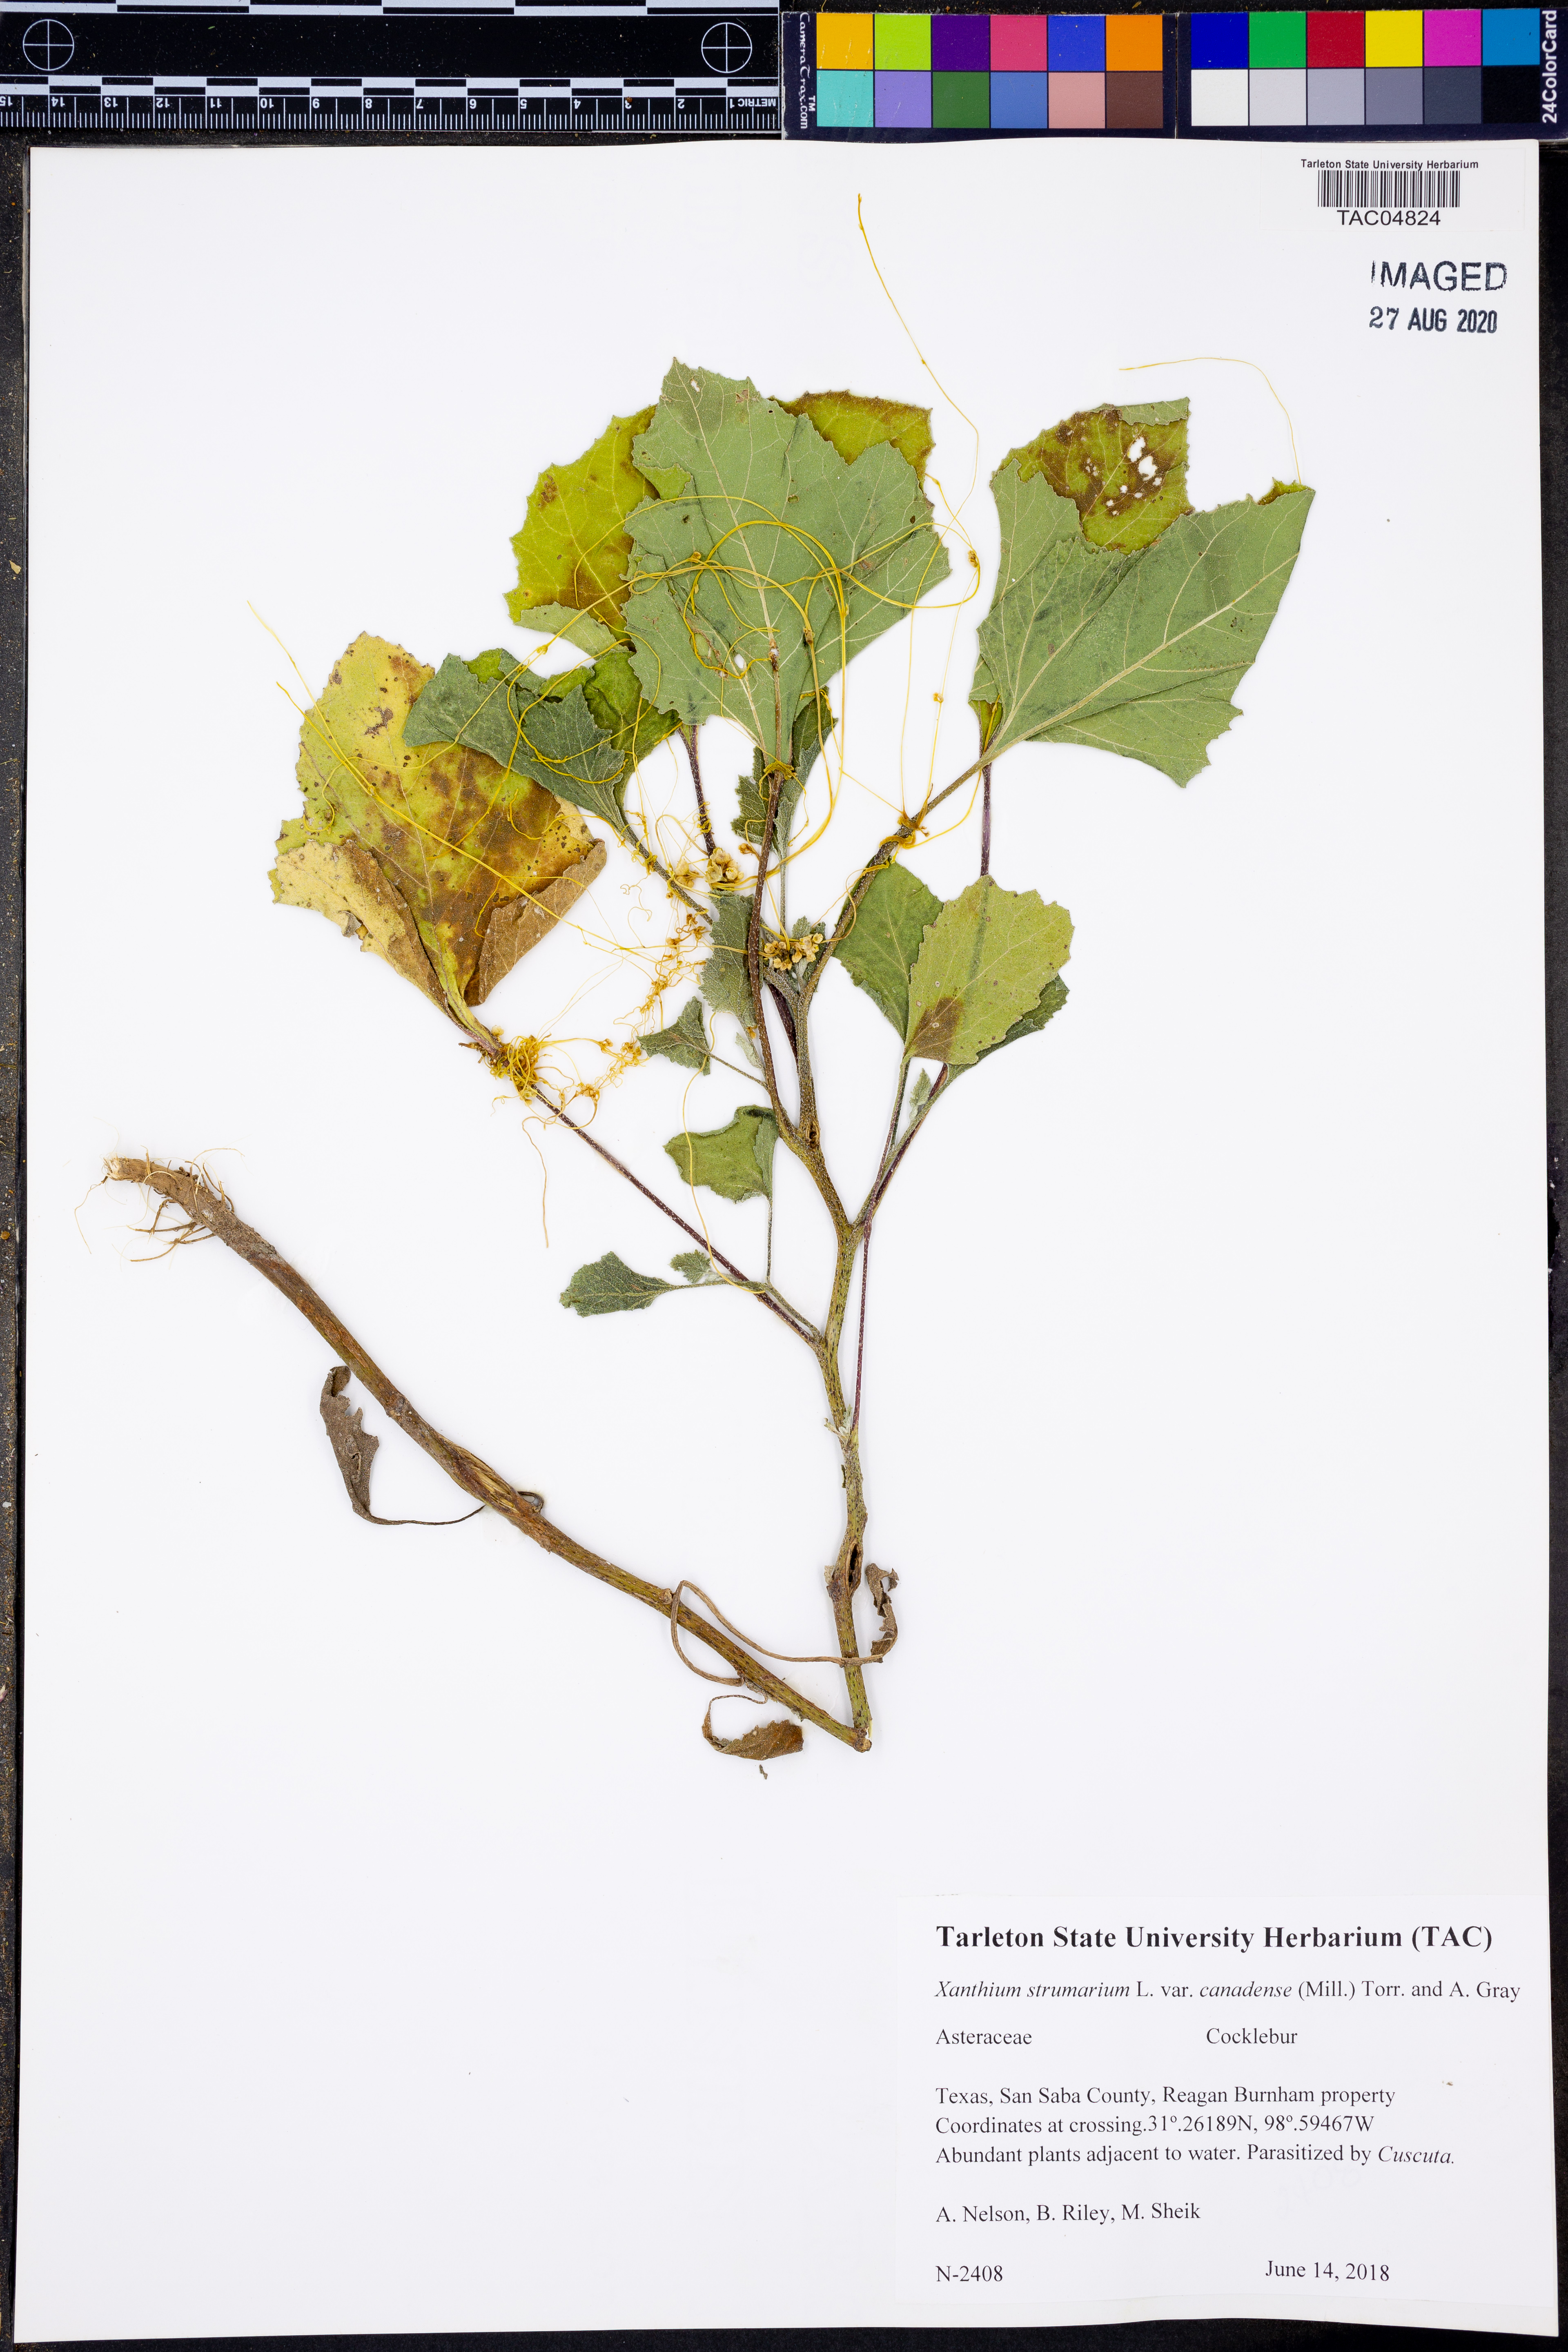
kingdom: Plantae
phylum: Tracheophyta
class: Magnoliopsida
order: Asterales
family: Asteraceae
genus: Xanthium
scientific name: Xanthium orientale
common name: Californian burr
